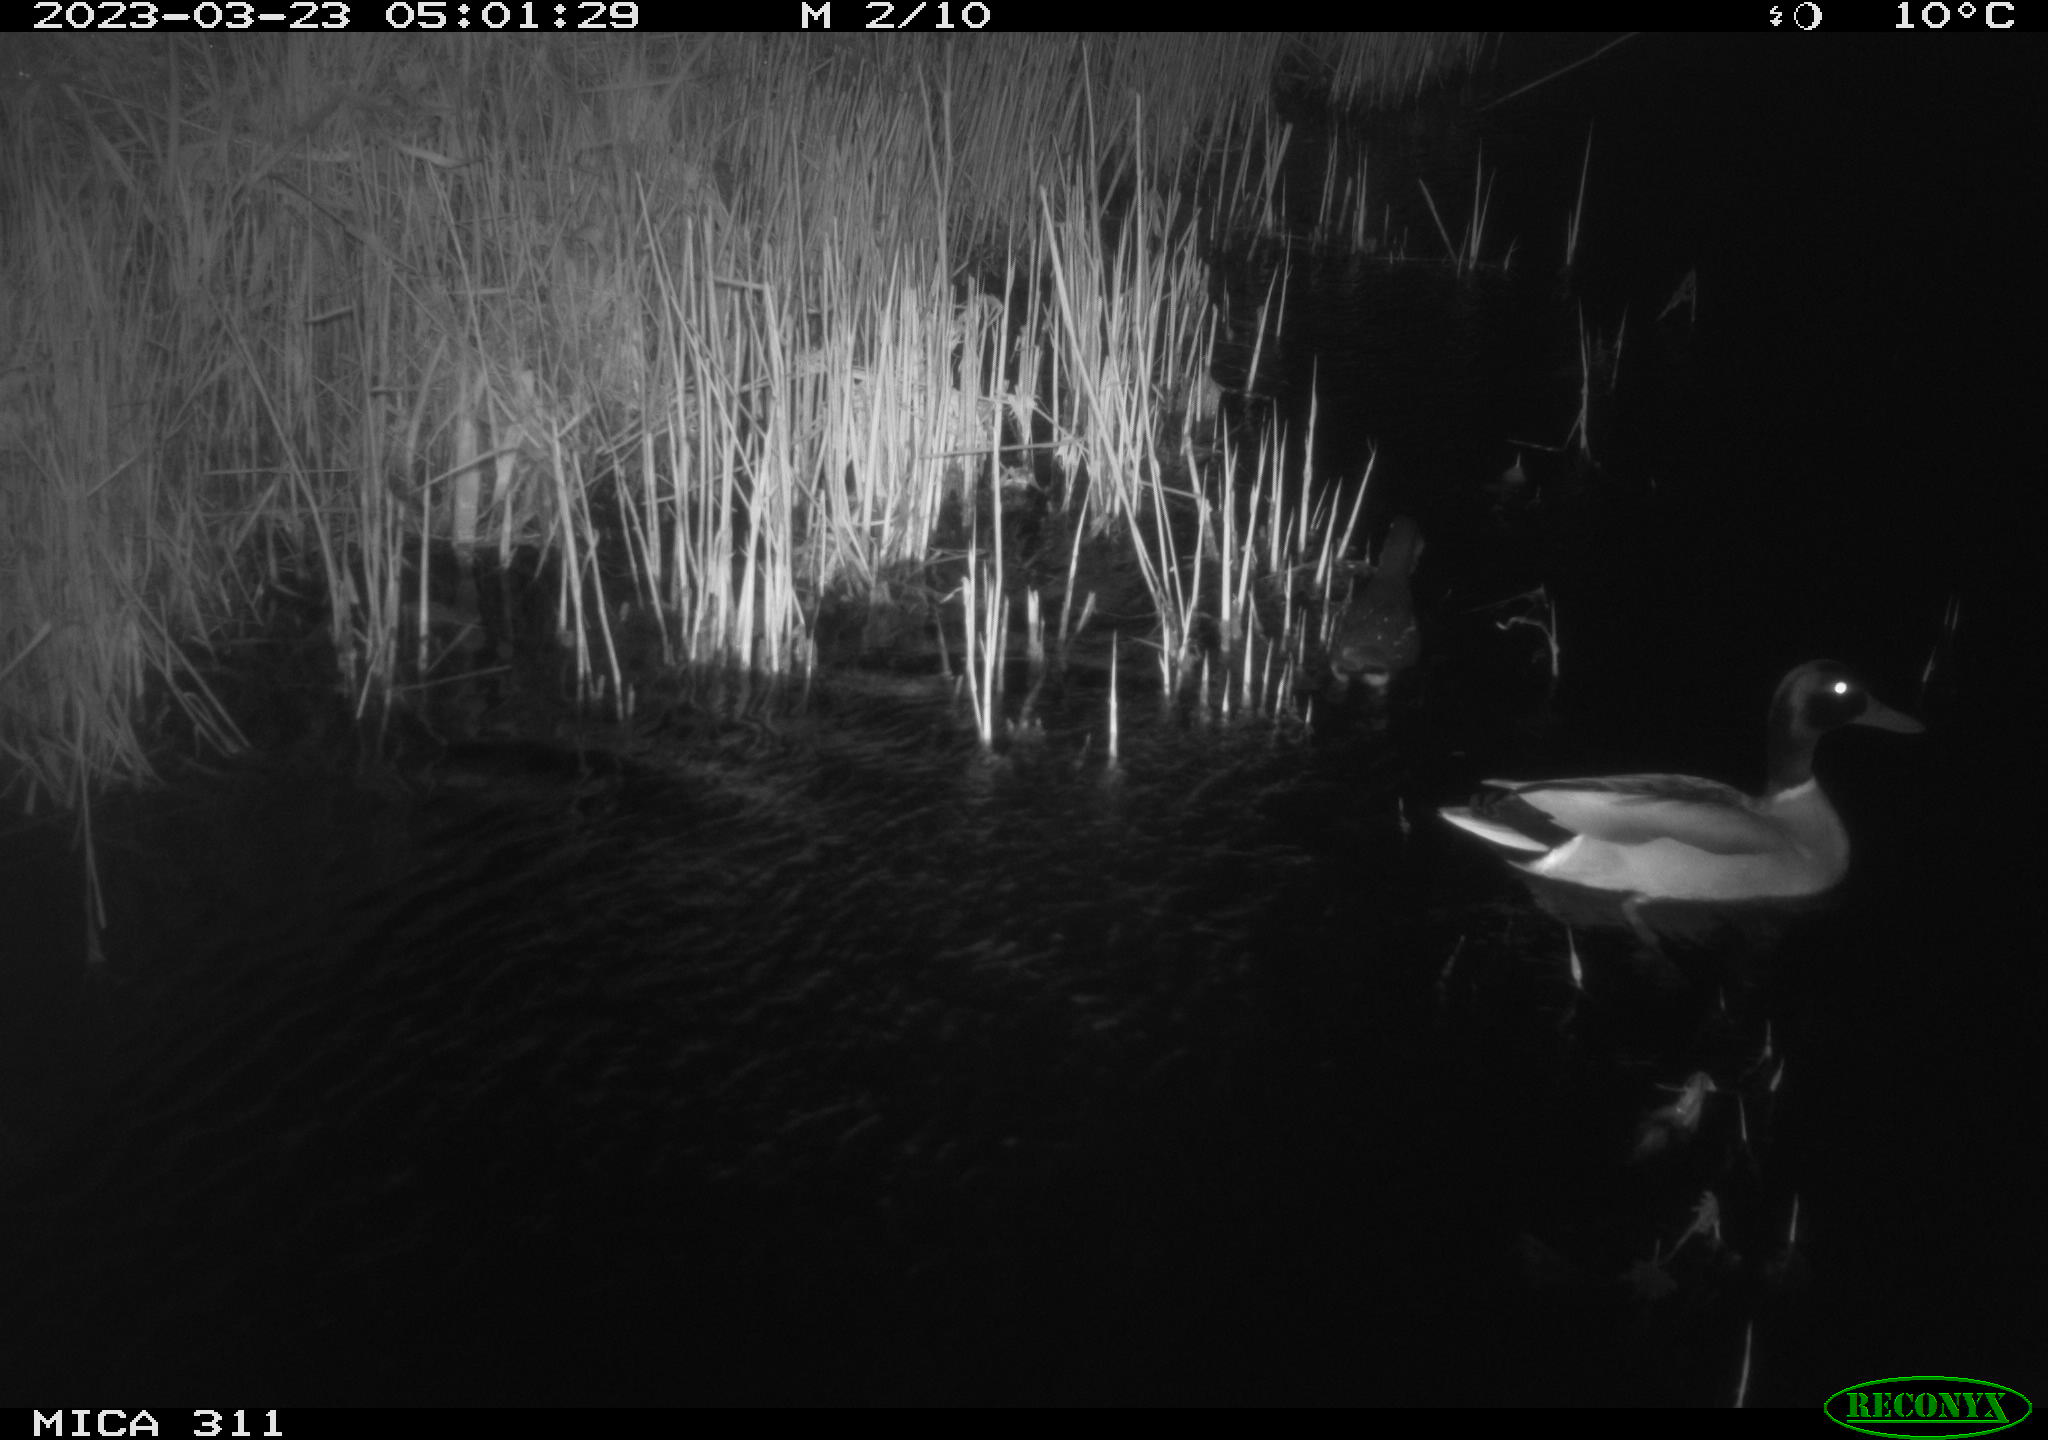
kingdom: Animalia
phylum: Chordata
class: Aves
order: Anseriformes
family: Anatidae
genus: Anas
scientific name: Anas
